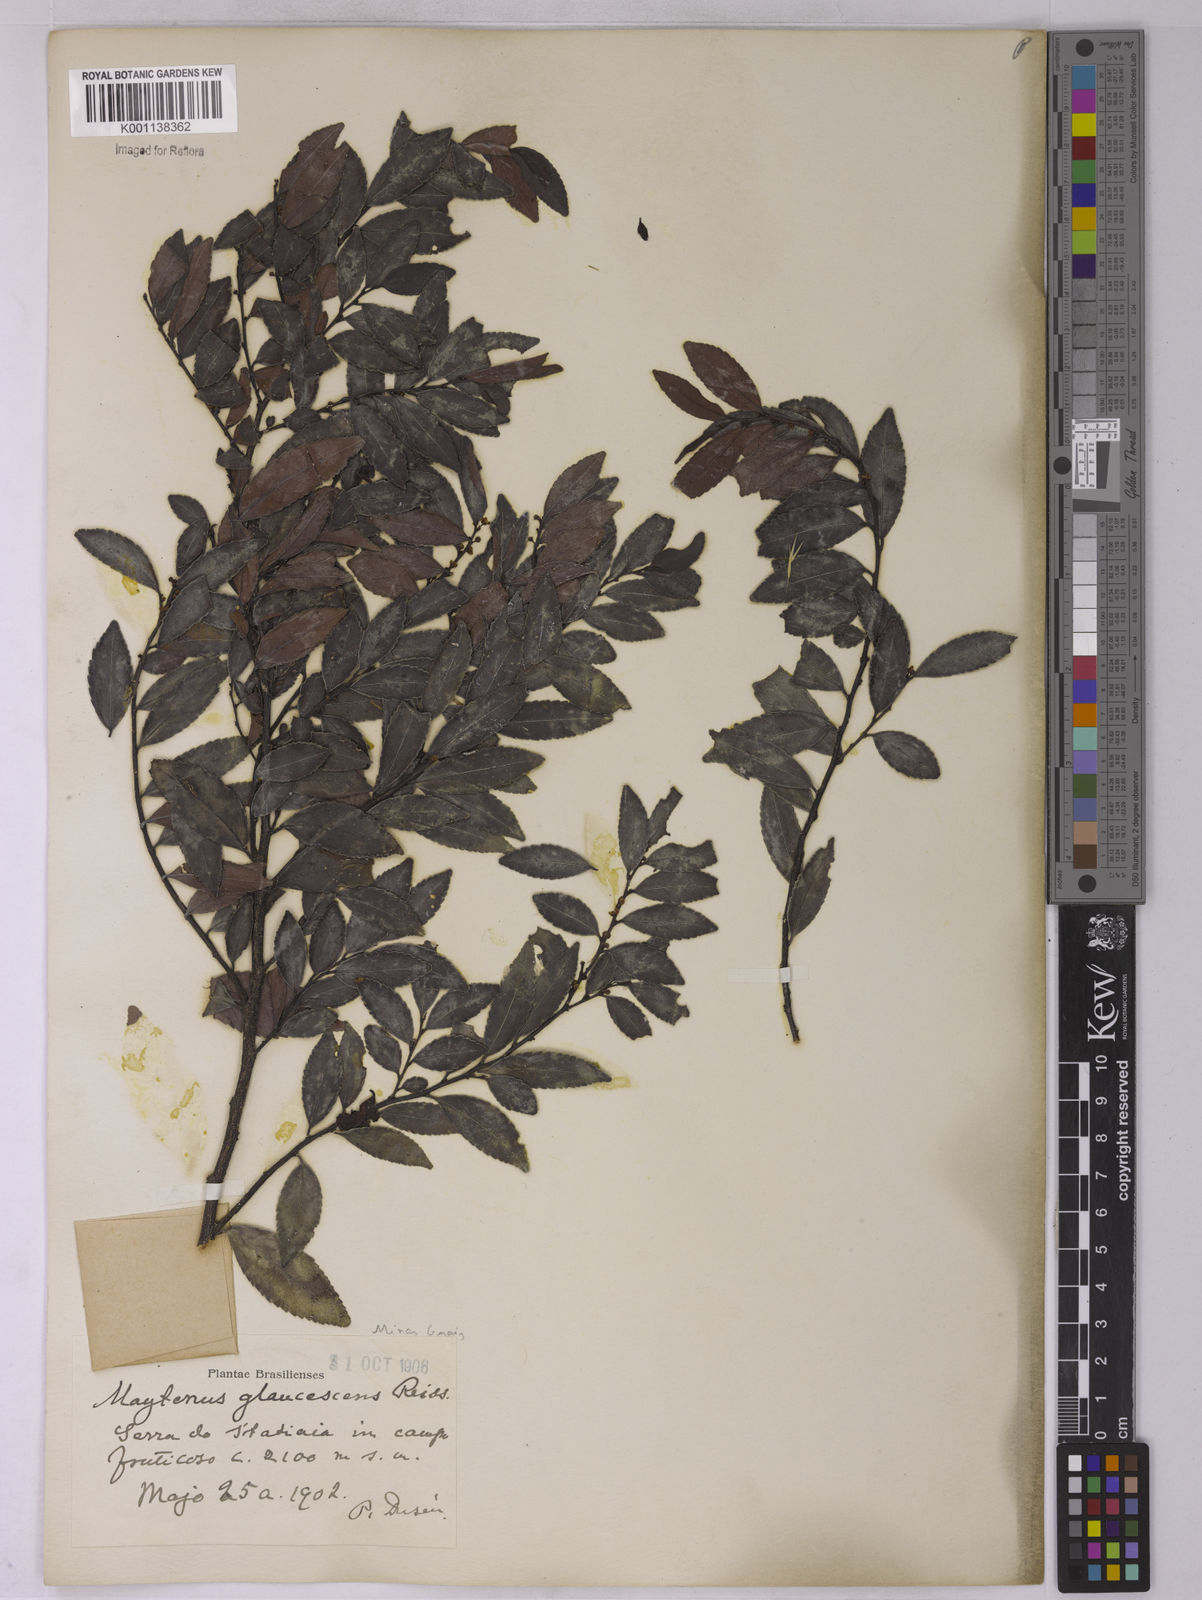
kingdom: Plantae
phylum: Tracheophyta
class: Magnoliopsida
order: Celastrales
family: Celastraceae
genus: Monteverdia
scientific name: Monteverdia glaucescens
